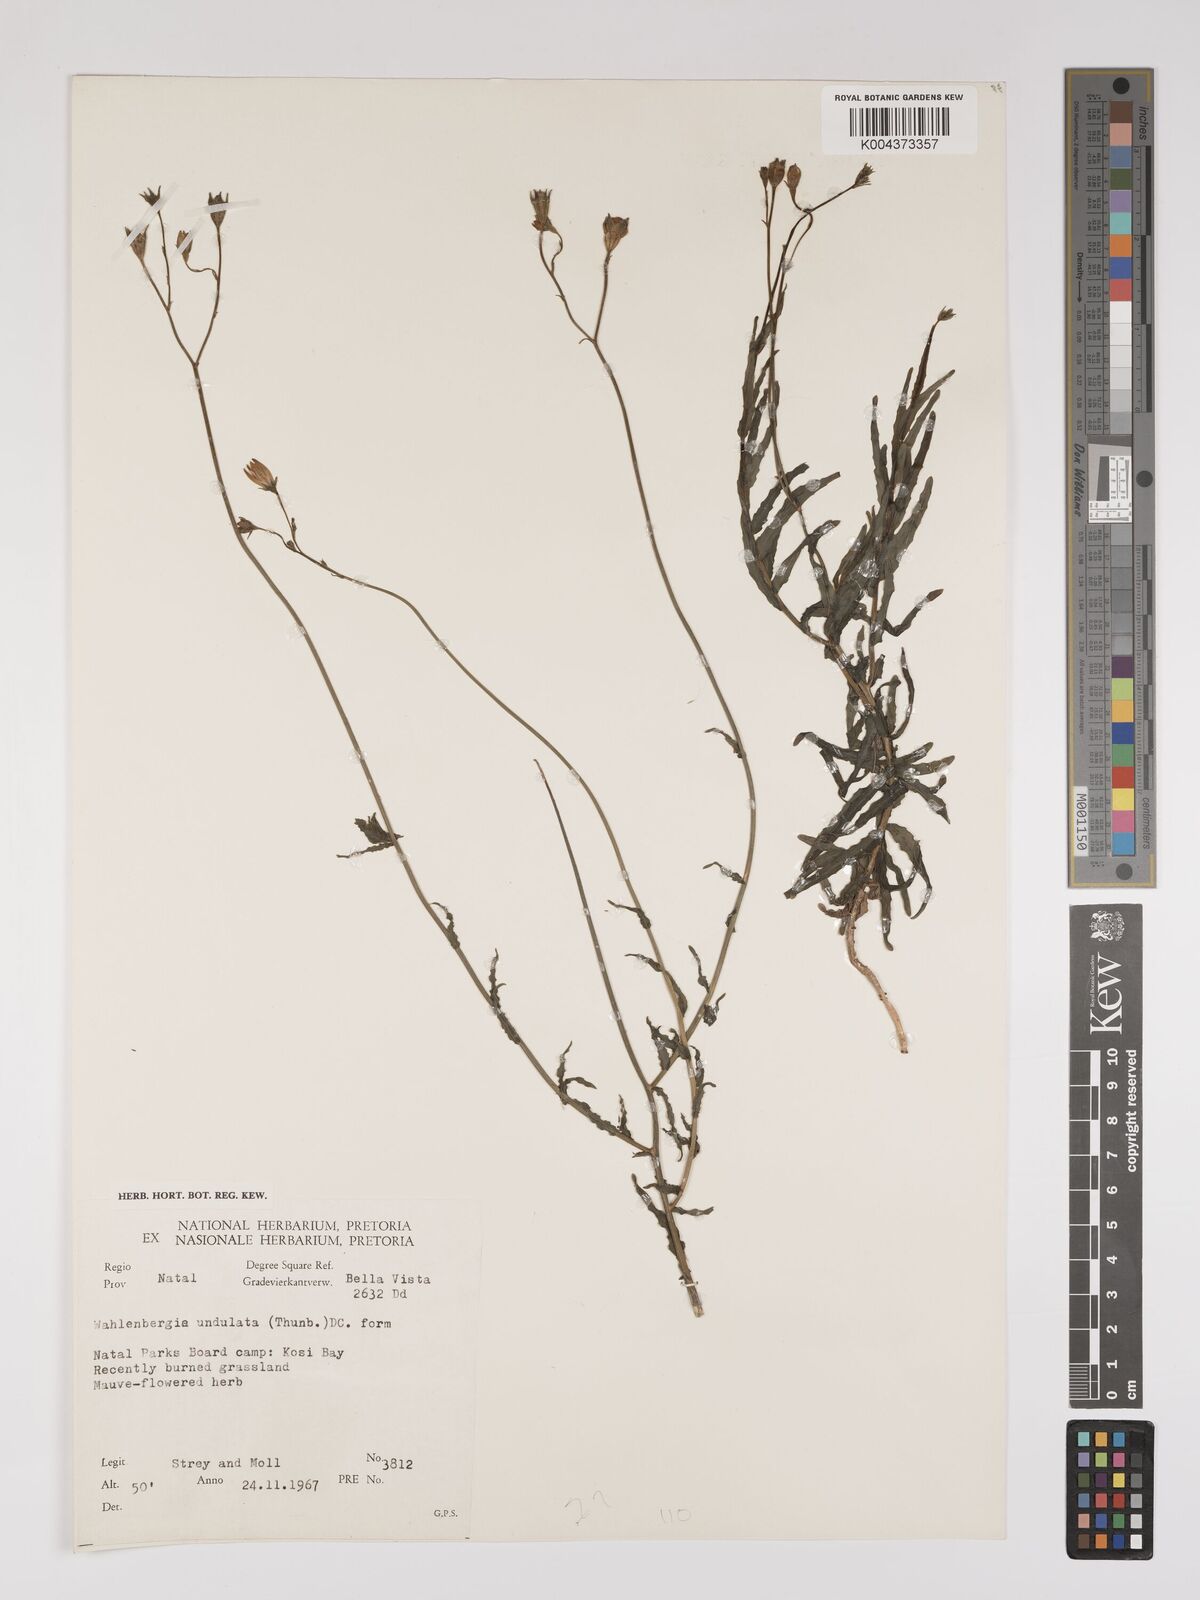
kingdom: Plantae
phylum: Tracheophyta
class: Magnoliopsida
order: Asterales
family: Campanulaceae
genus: Wahlenbergia
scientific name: Wahlenbergia undulata
